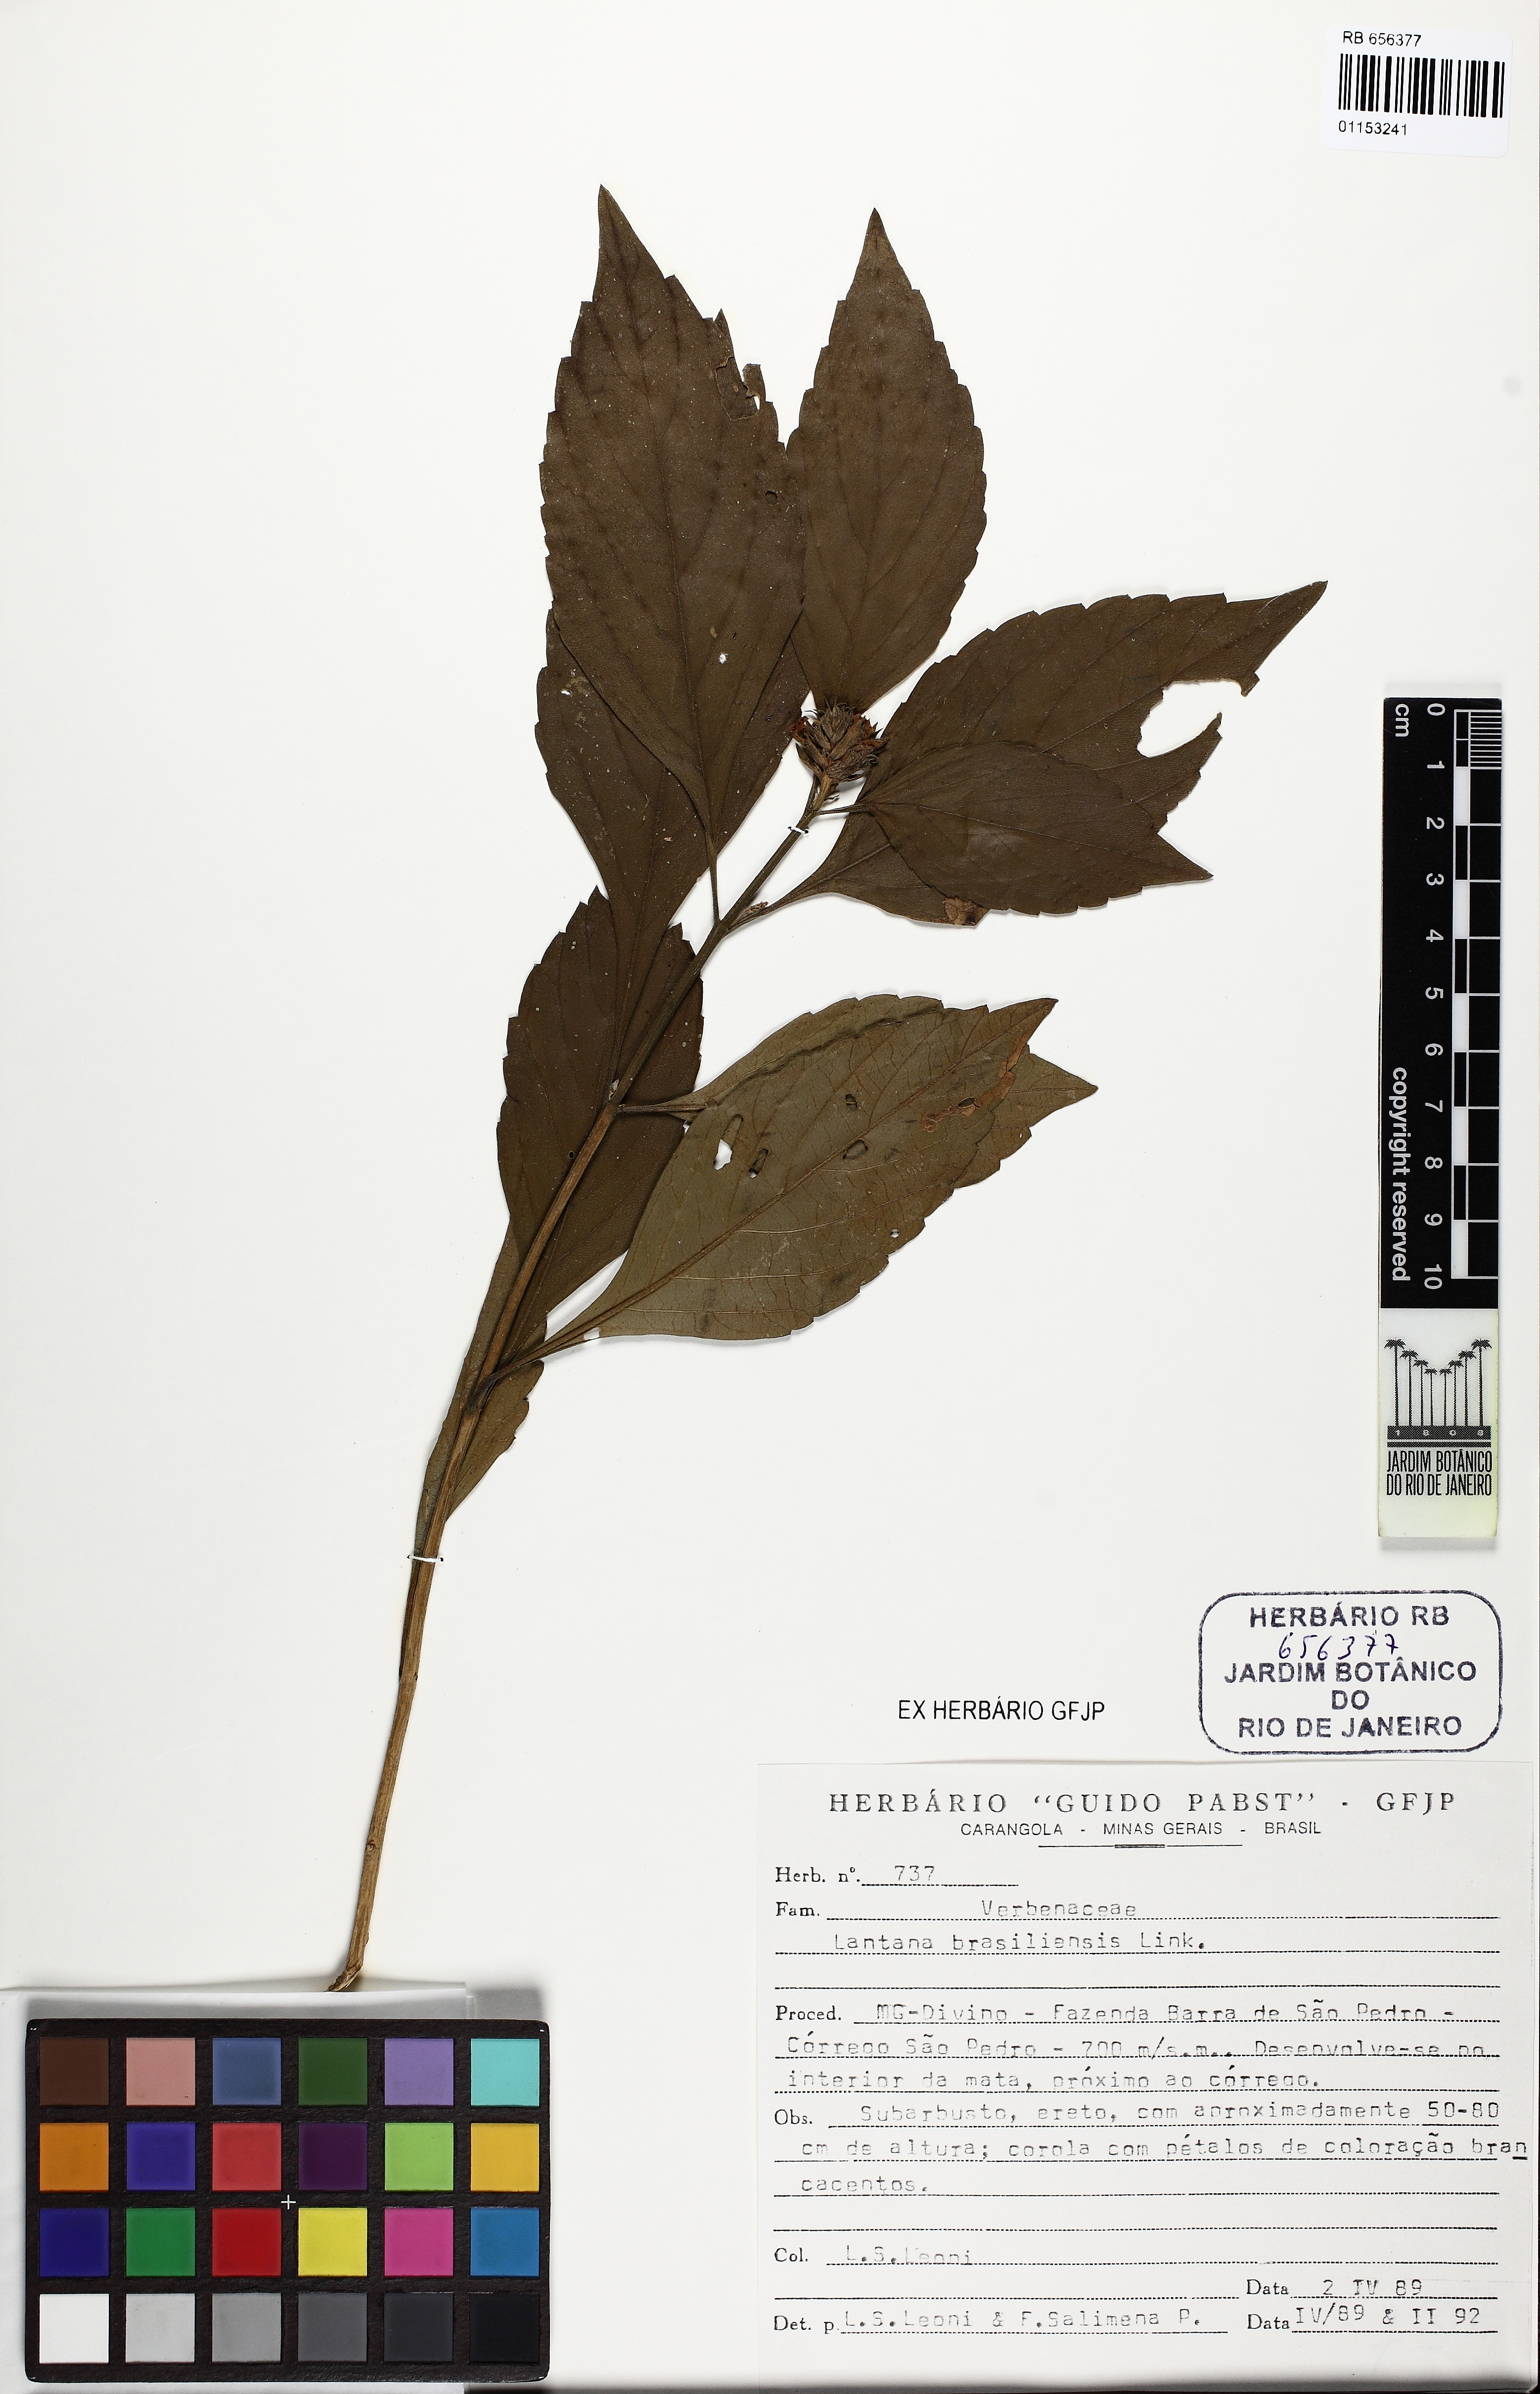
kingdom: Plantae
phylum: Tracheophyta
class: Magnoliopsida
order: Lamiales
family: Verbenaceae
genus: Lippia
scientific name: Lippia brasiliensis
